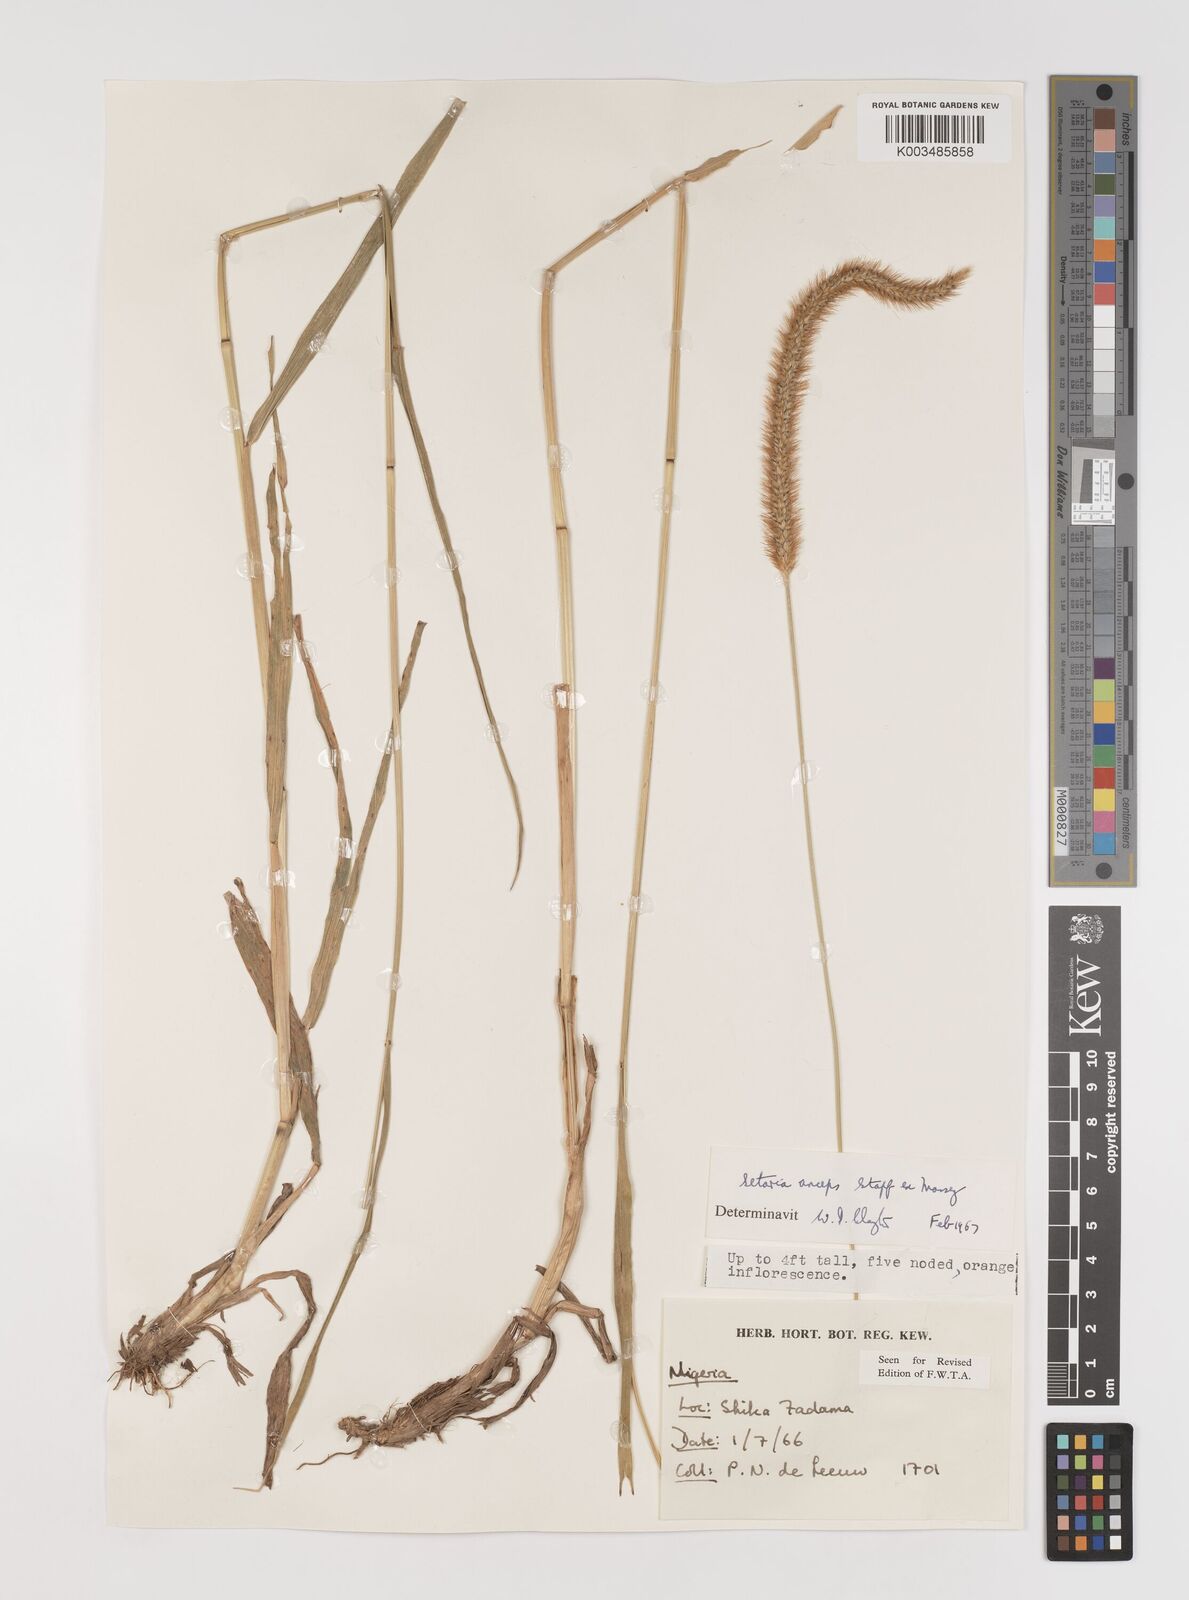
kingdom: Plantae
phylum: Tracheophyta
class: Liliopsida
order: Poales
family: Poaceae
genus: Setaria
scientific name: Setaria sphacelata
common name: African bristlegrass
